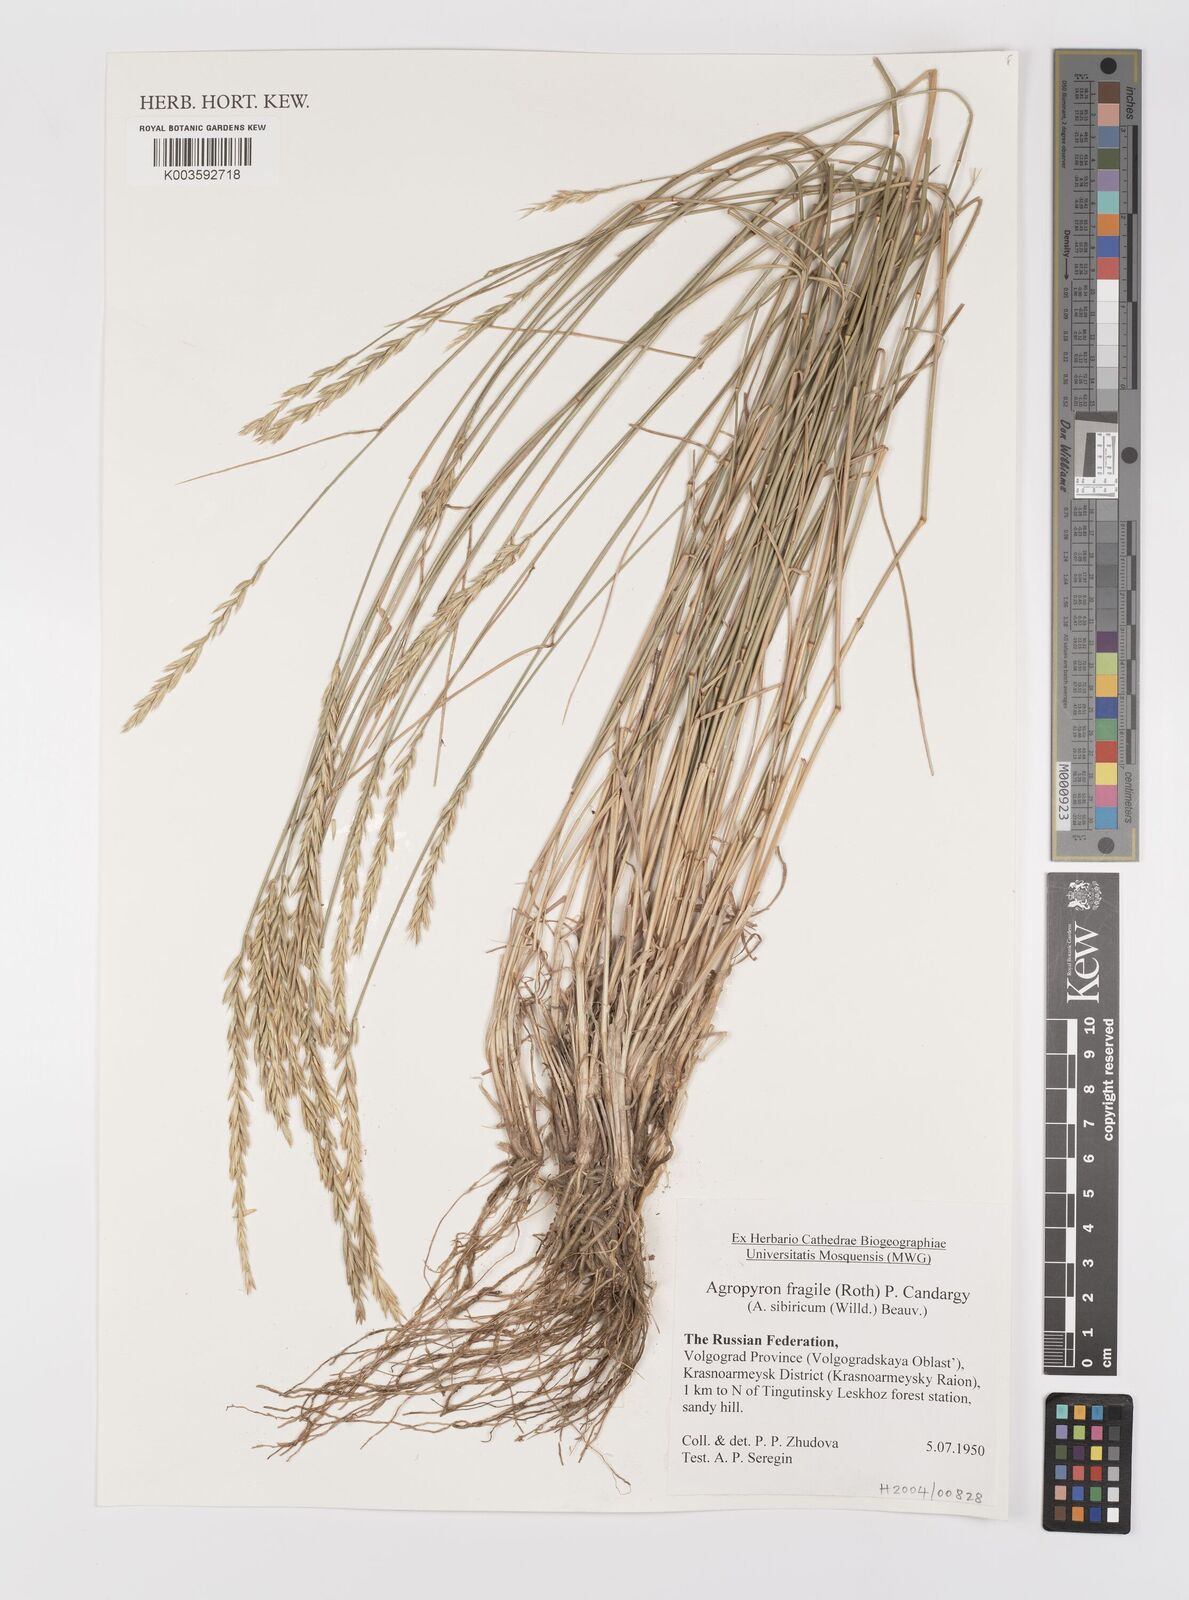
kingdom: Plantae
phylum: Tracheophyta
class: Liliopsida
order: Poales
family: Poaceae
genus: Agropyron
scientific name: Agropyron fragile
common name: Siberian wheatgrass
